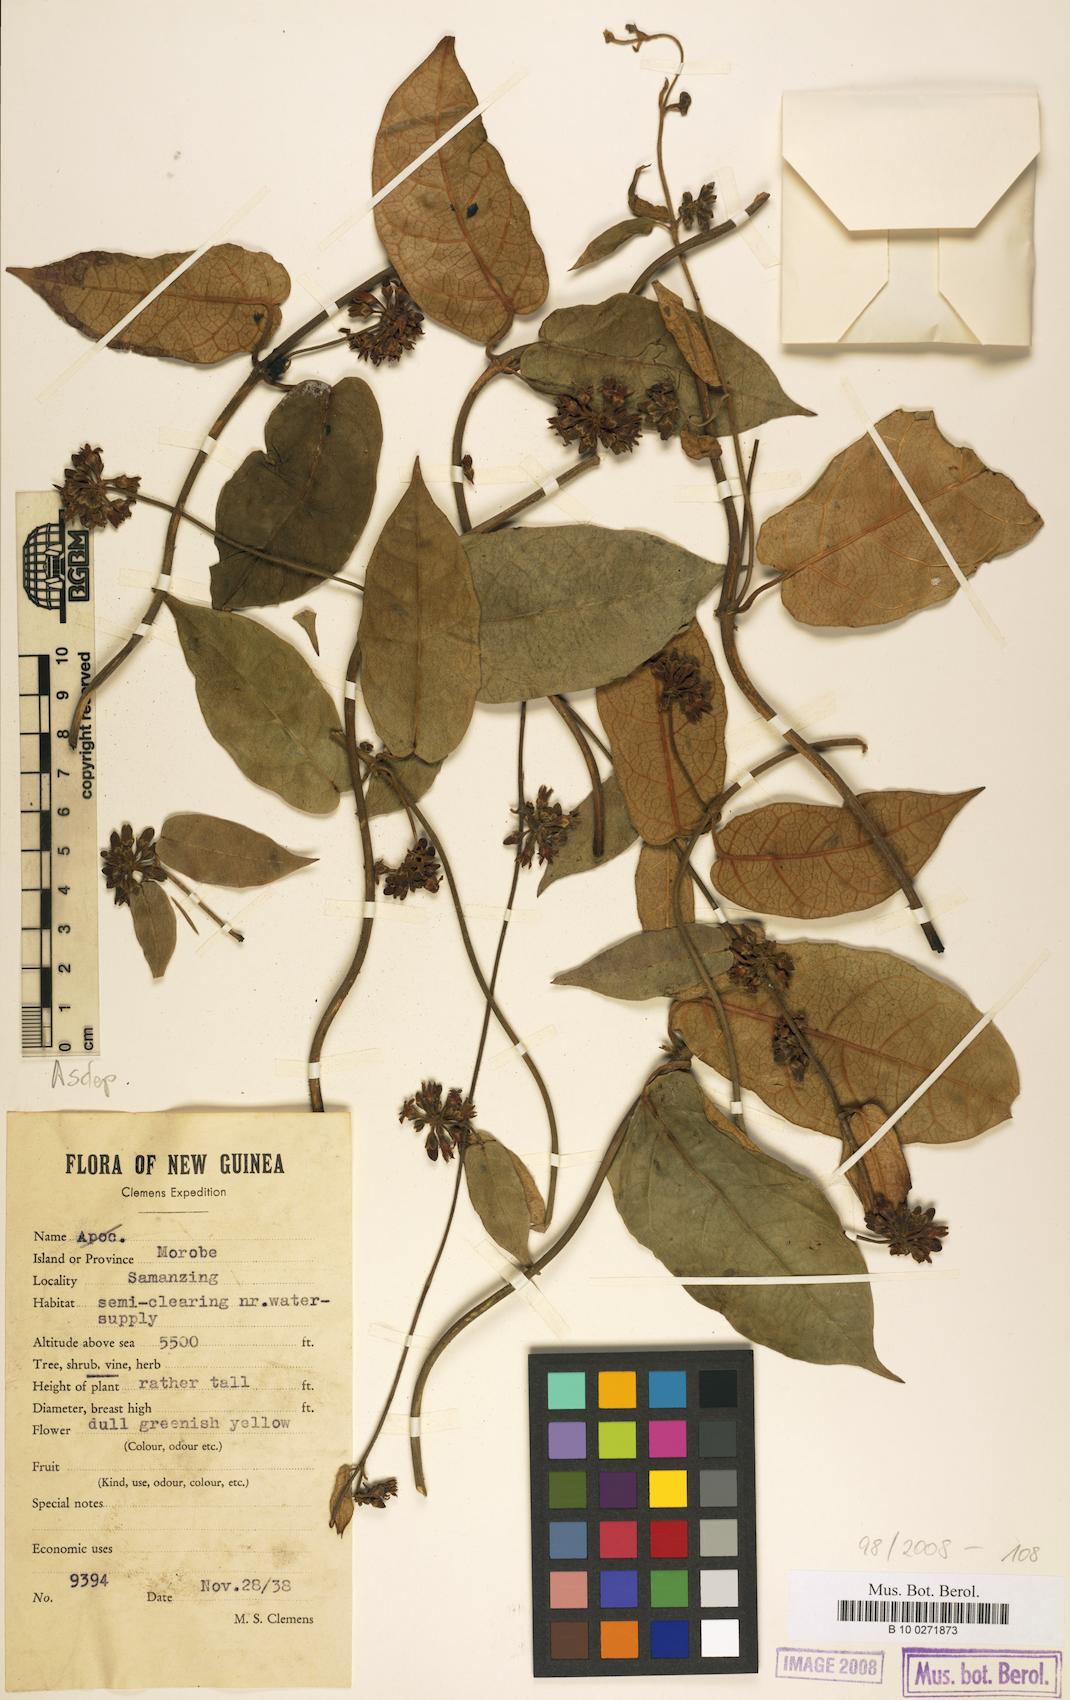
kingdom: Plantae
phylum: Tracheophyta
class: Magnoliopsida
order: Gentianales
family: Asclepiadaceae
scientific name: Asclepiadaceae
